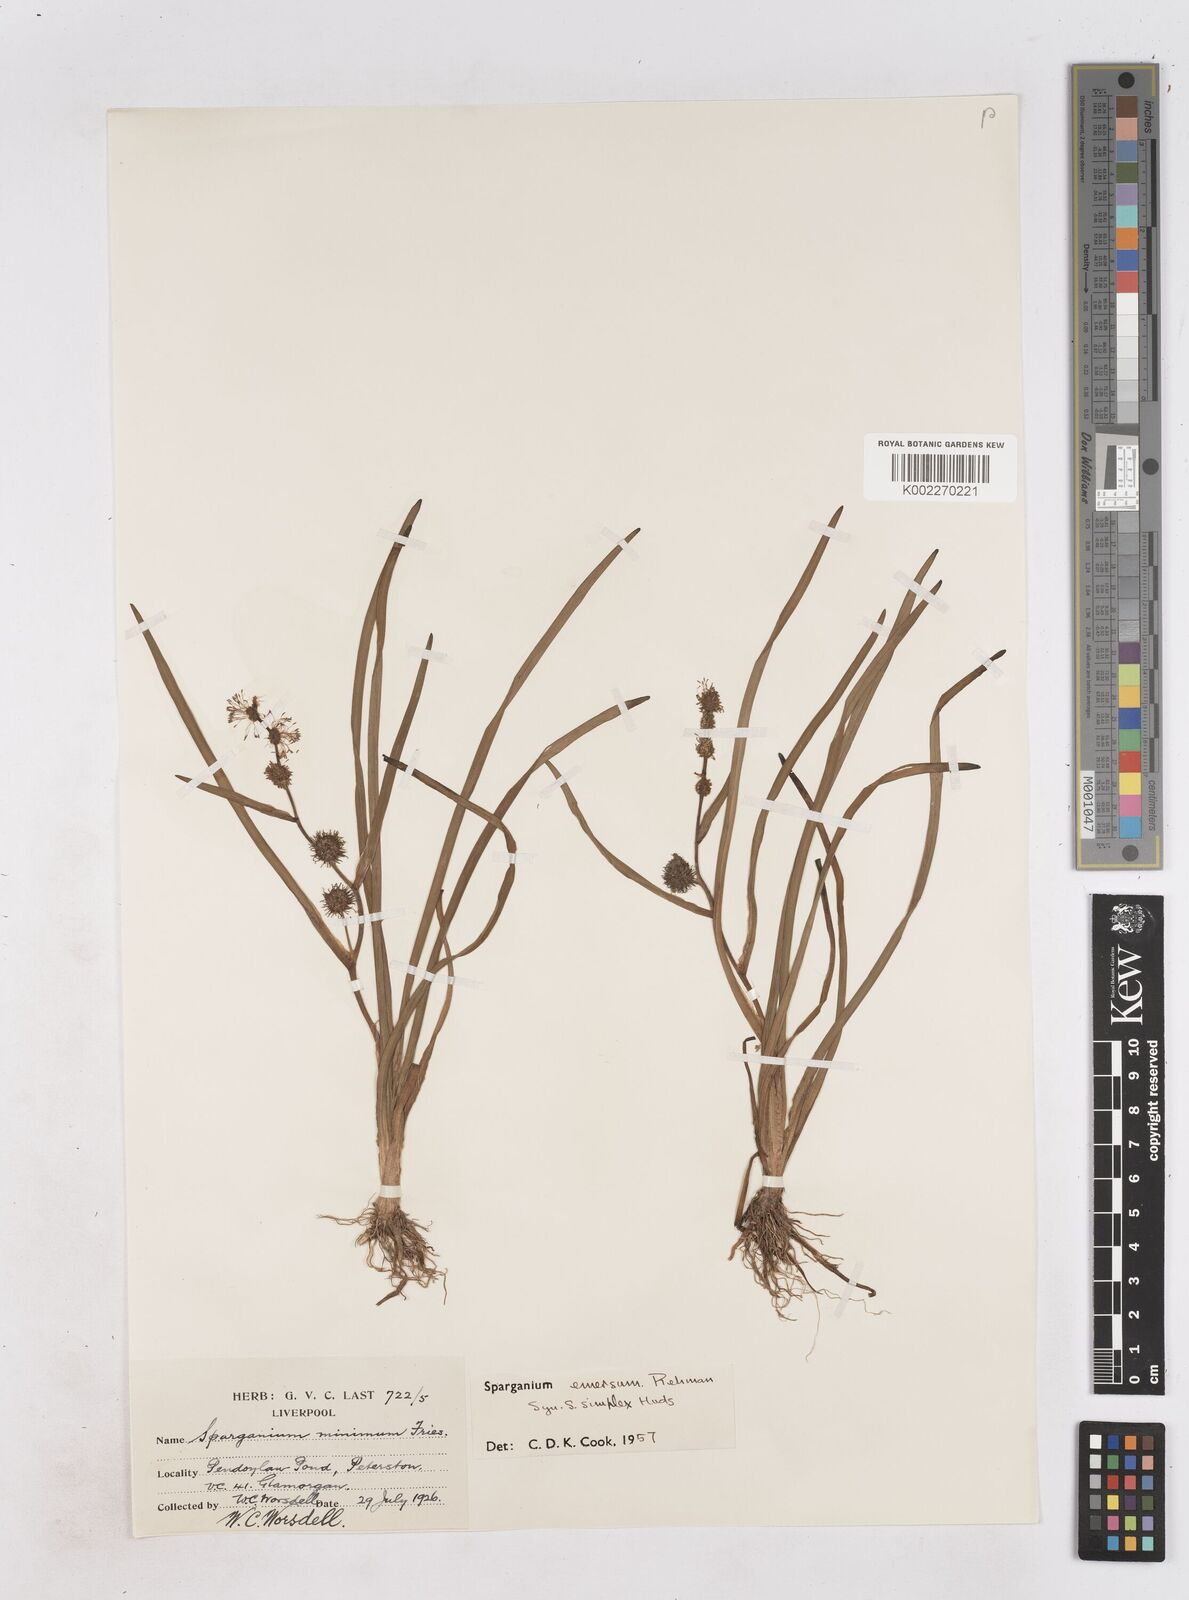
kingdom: Plantae
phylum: Tracheophyta
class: Liliopsida
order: Poales
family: Typhaceae
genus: Sparganium
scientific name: Sparganium emersum
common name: Unbranched bur-reed
